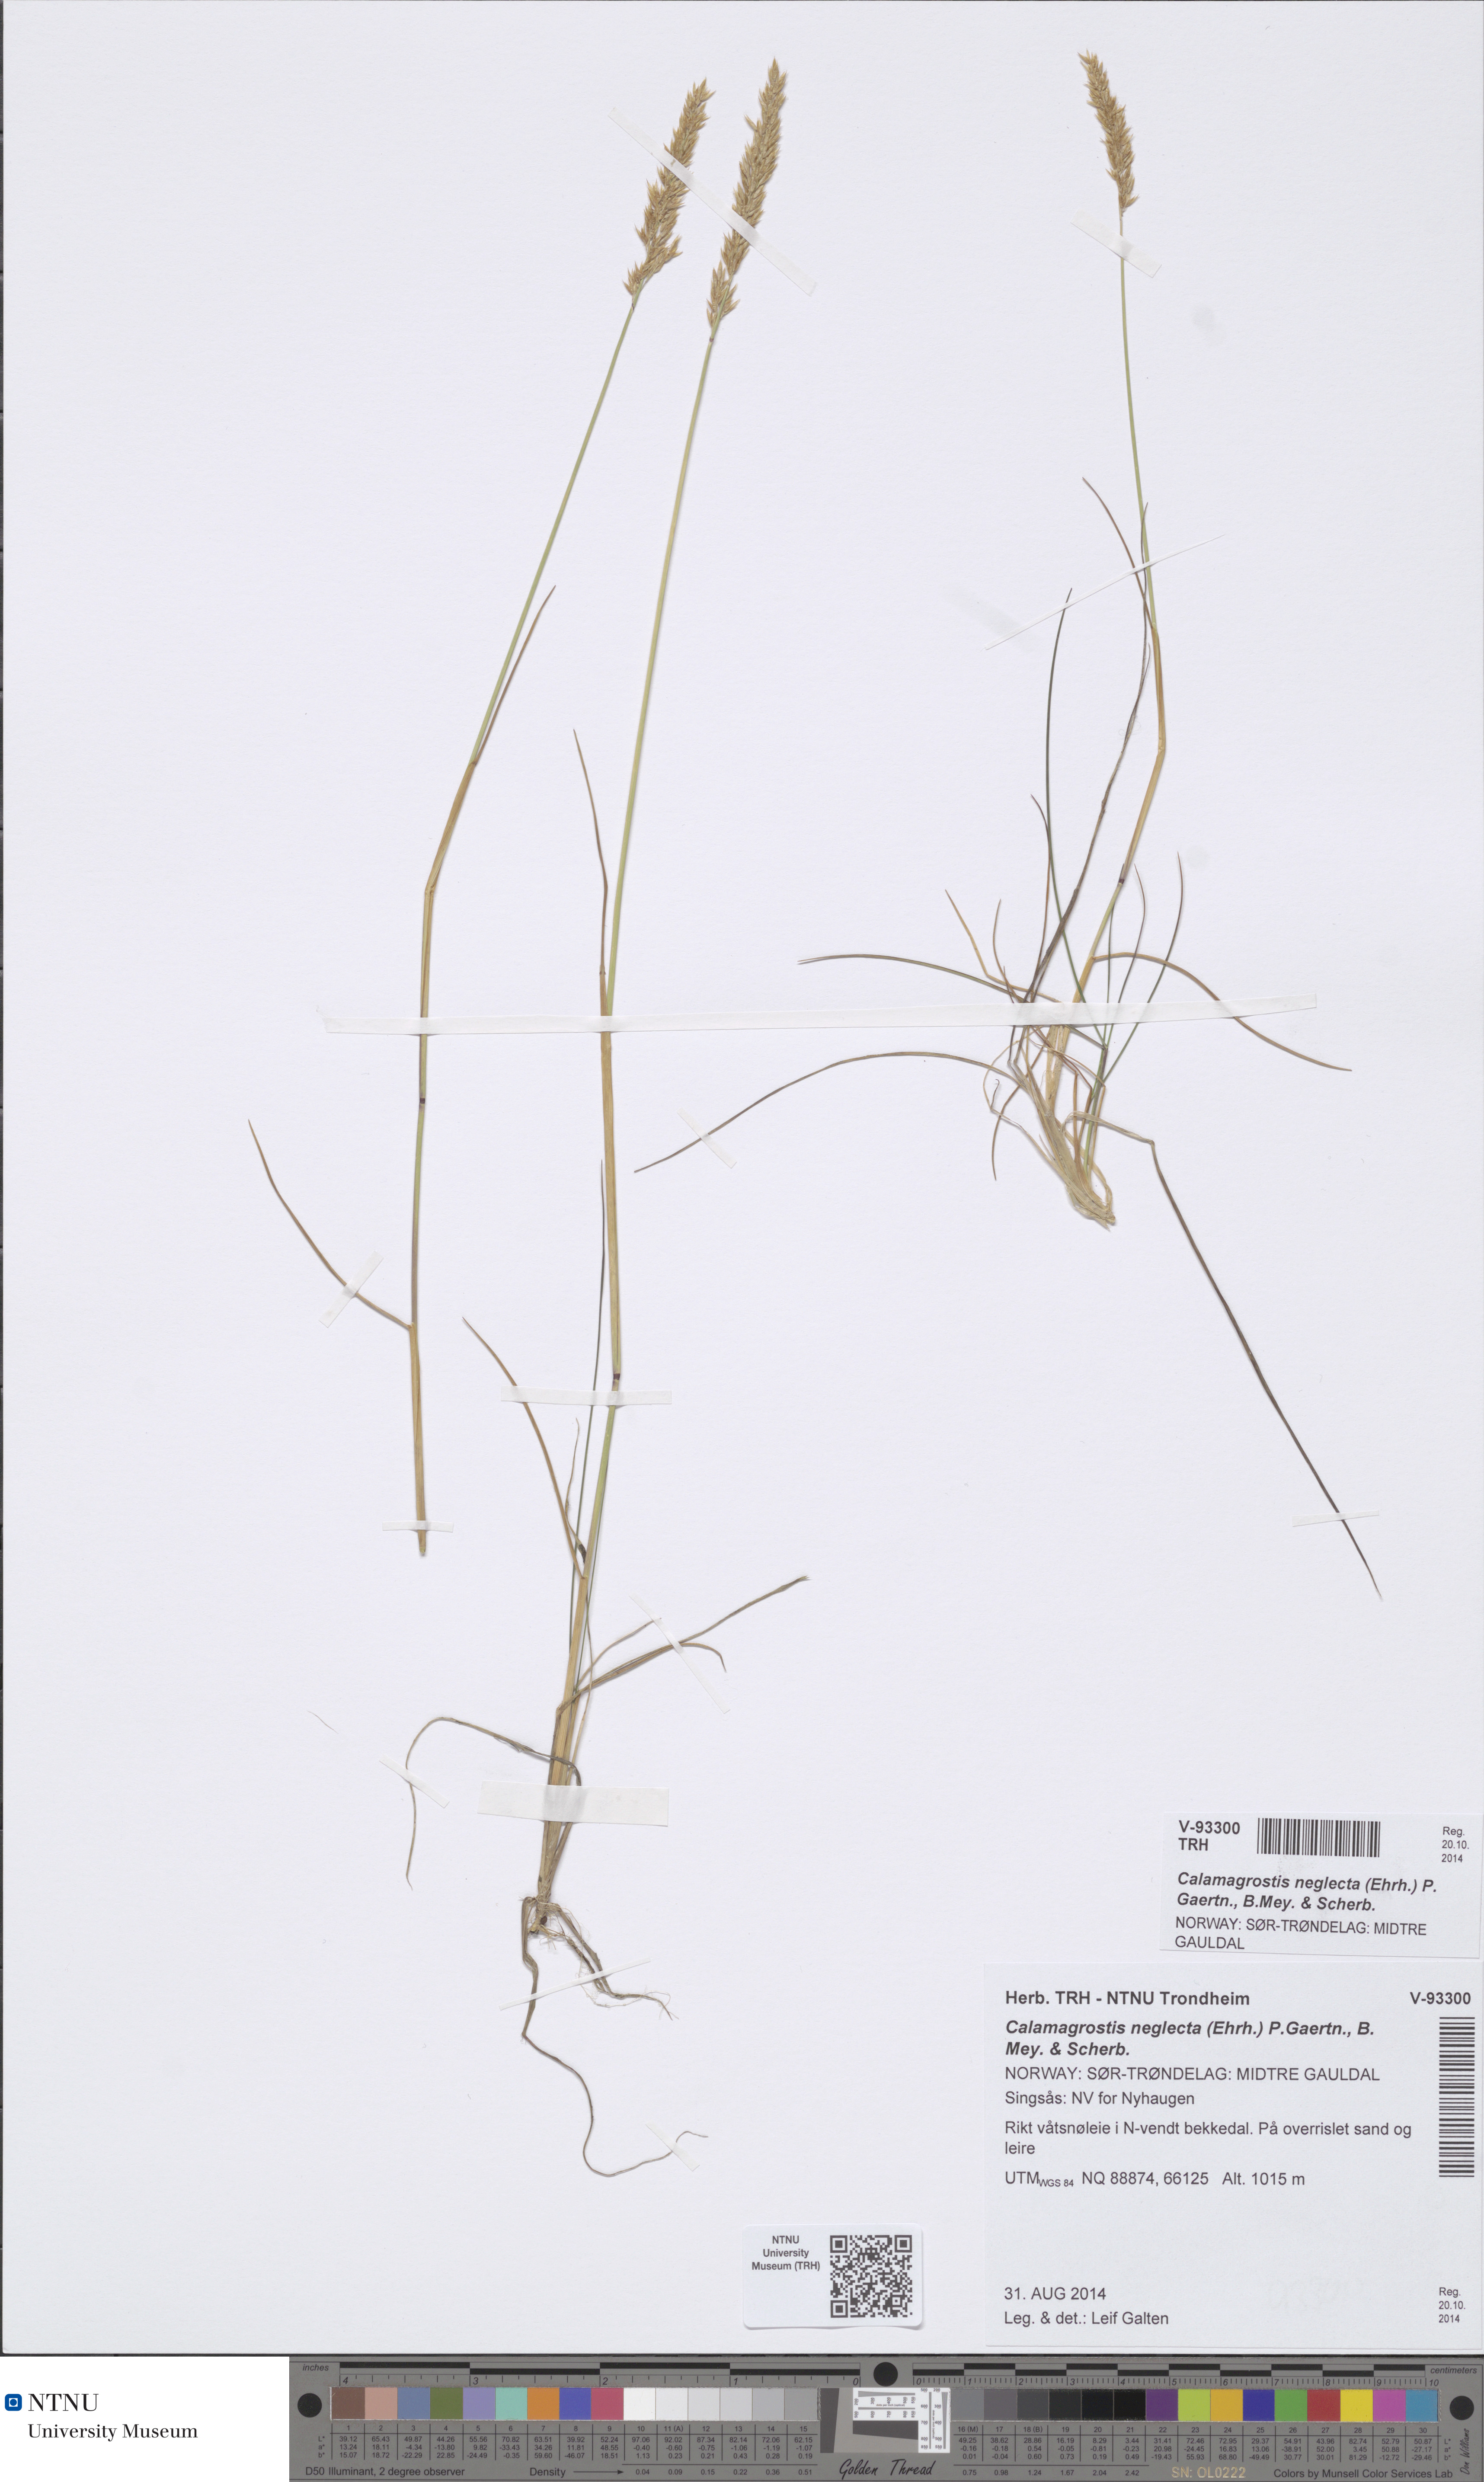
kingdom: Plantae
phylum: Tracheophyta
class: Liliopsida
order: Poales
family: Poaceae
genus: Achnatherum
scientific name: Achnatherum calamagrostis
